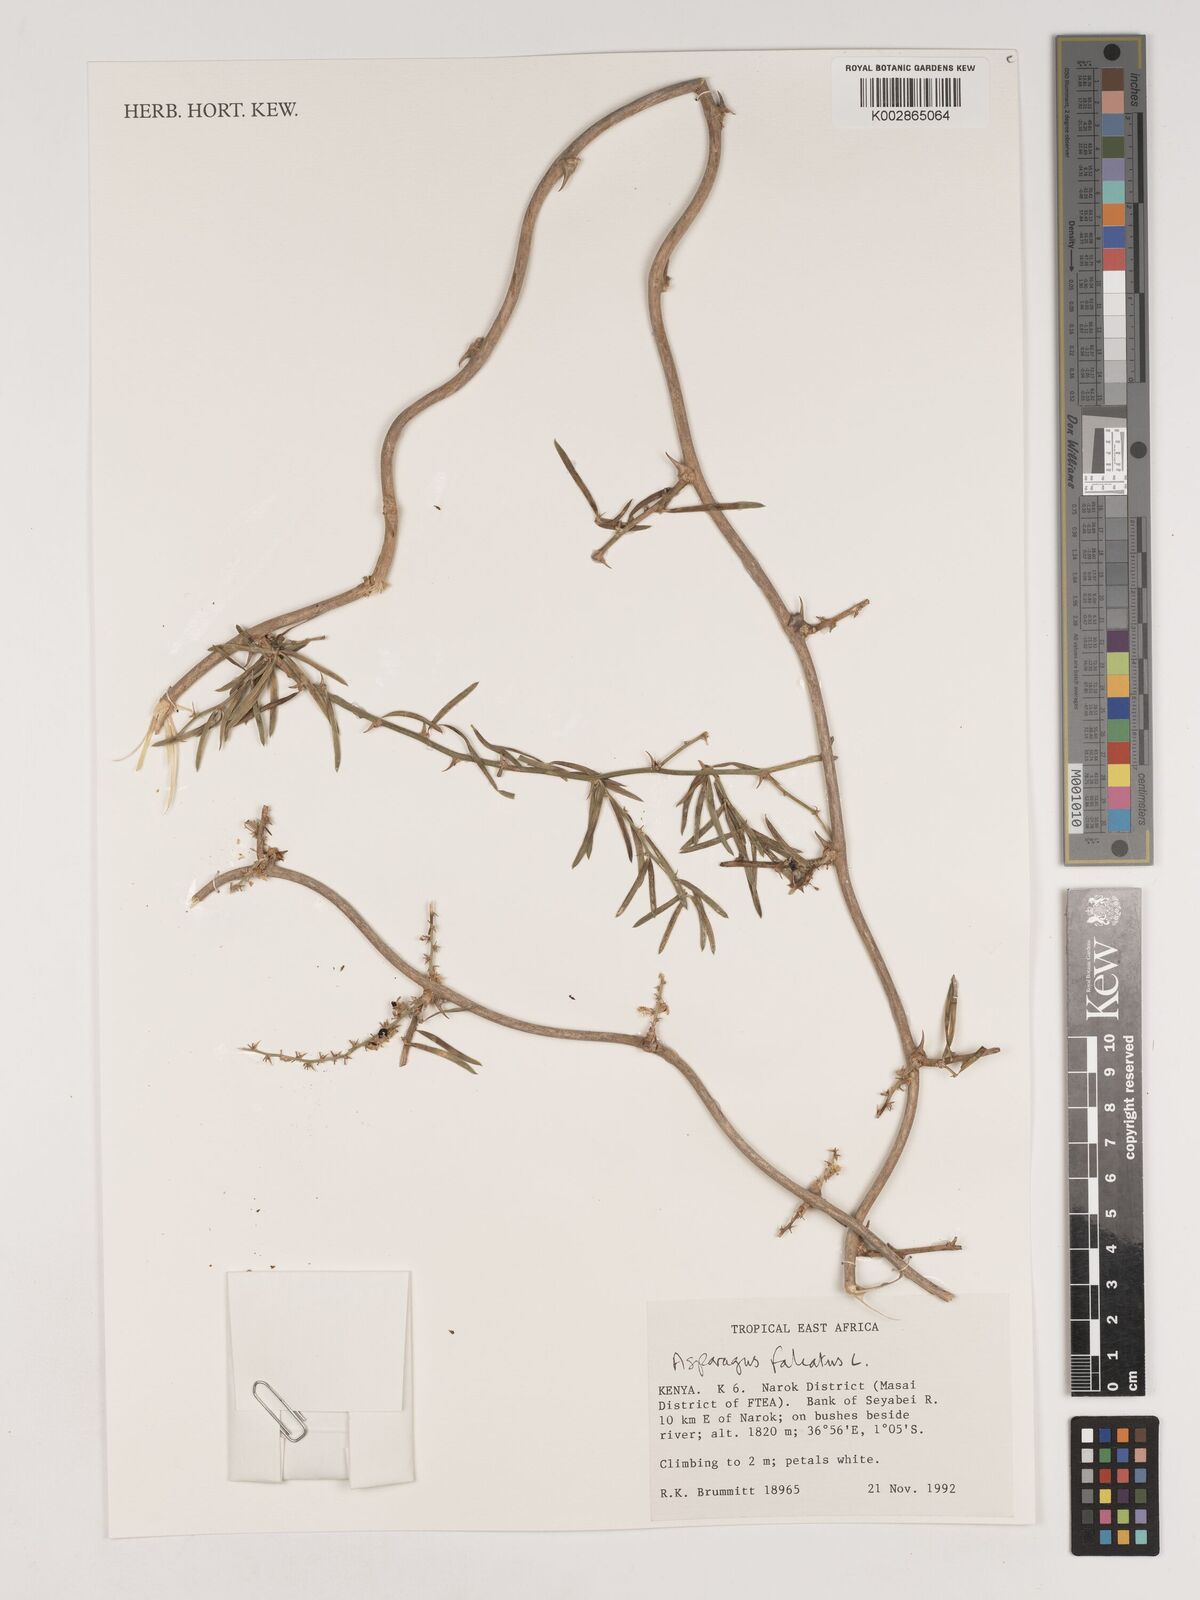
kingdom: Plantae
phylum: Tracheophyta
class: Liliopsida
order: Asparagales
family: Asparagaceae
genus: Asparagus
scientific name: Asparagus falcatus
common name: Asparagus
